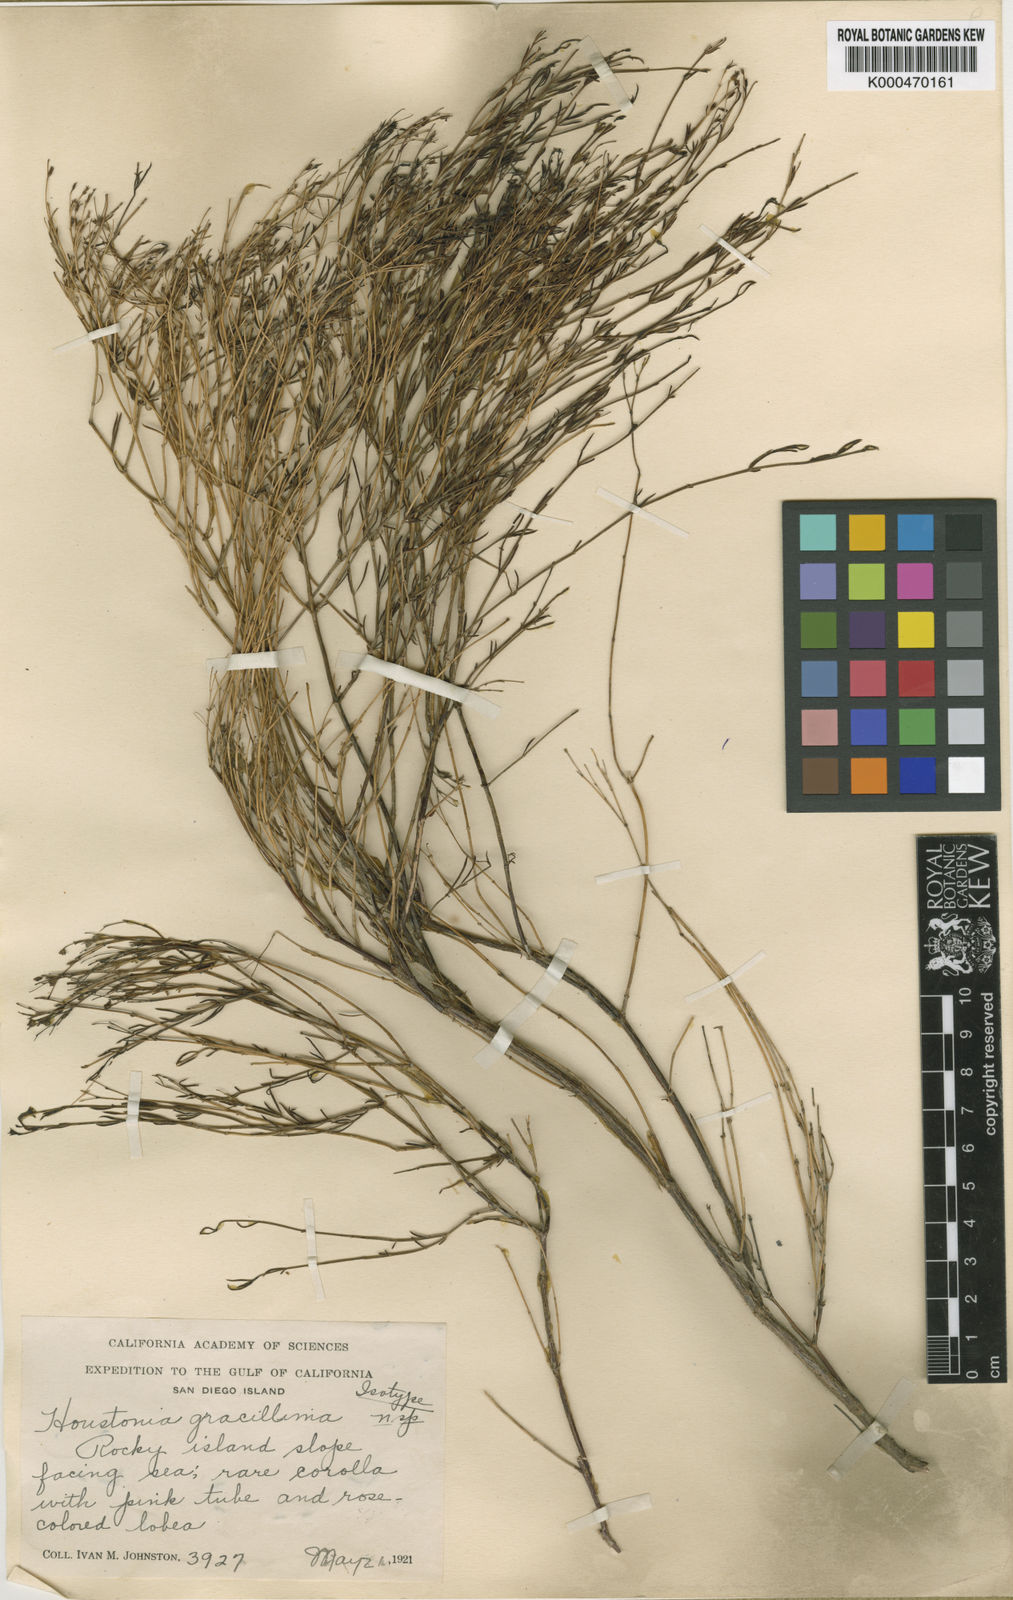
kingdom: Plantae
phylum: Tracheophyta
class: Magnoliopsida
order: Gentianales
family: Rubiaceae
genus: Stenotis
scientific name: Stenotis gracilenta
